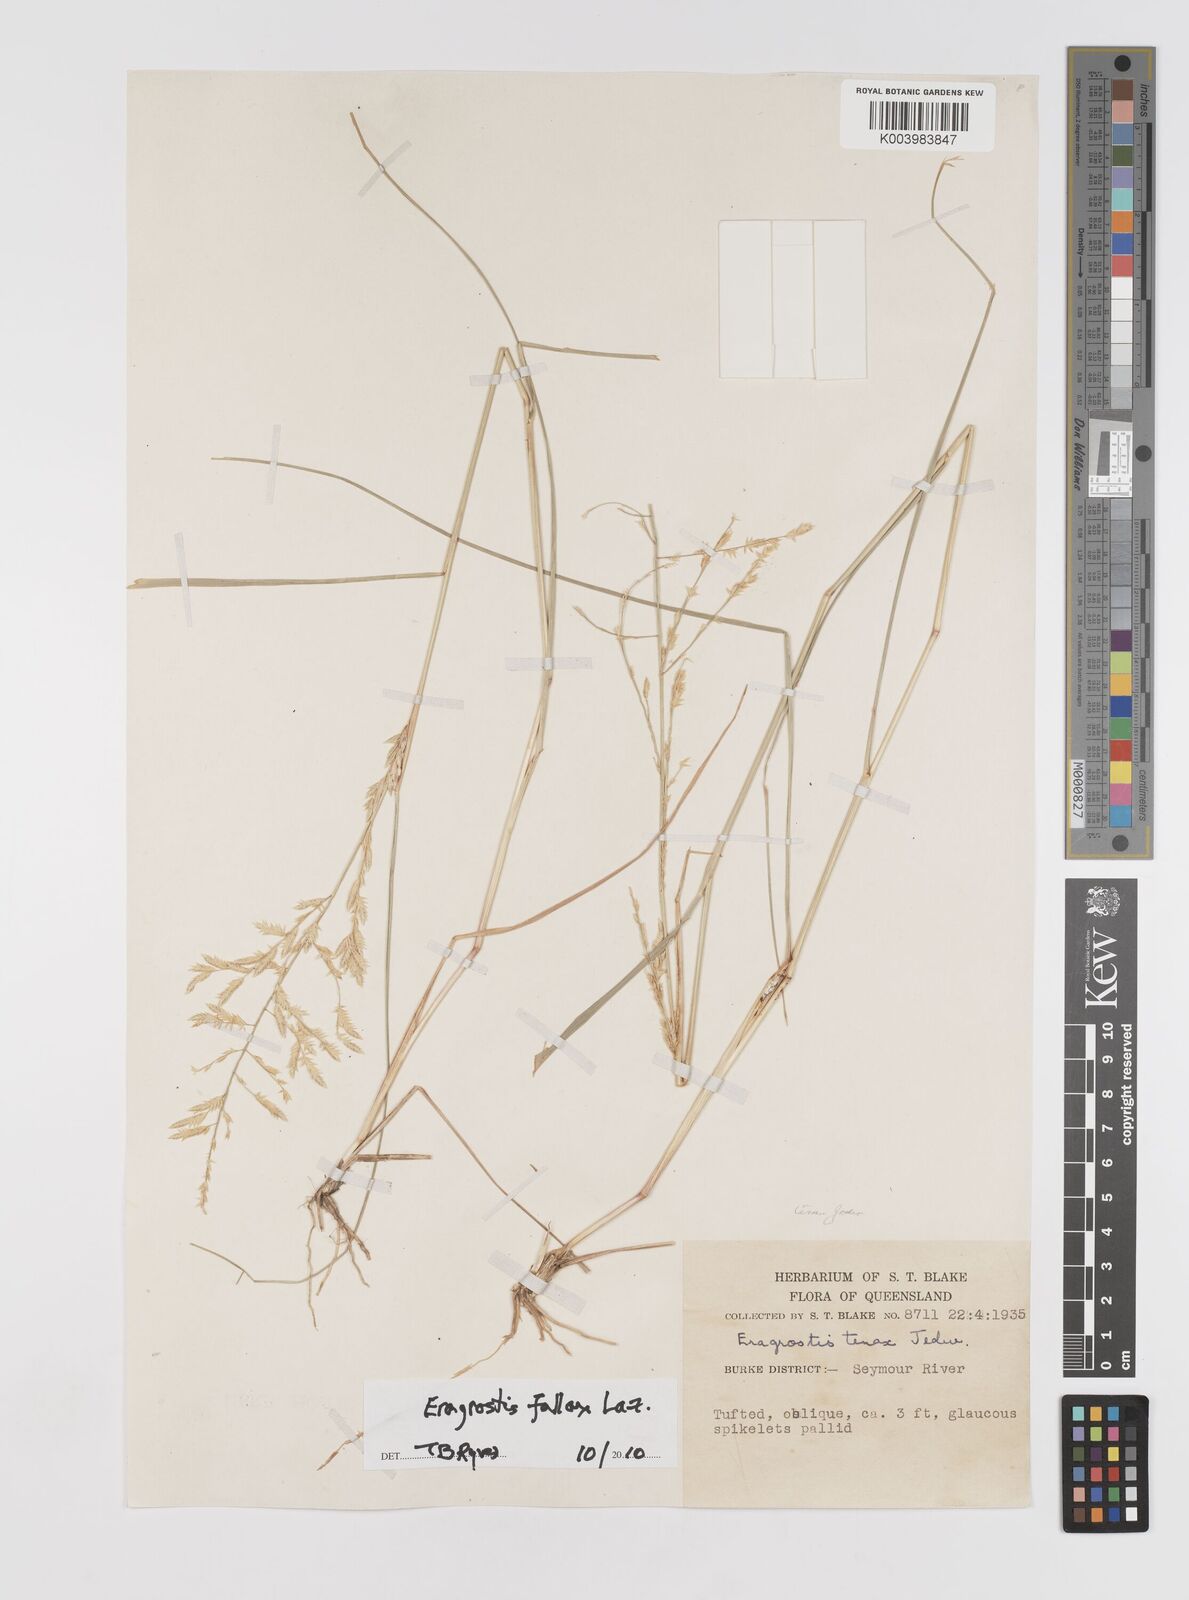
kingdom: Plantae
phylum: Tracheophyta
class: Liliopsida
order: Poales
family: Poaceae
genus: Eragrostis
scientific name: Eragrostis fallax
